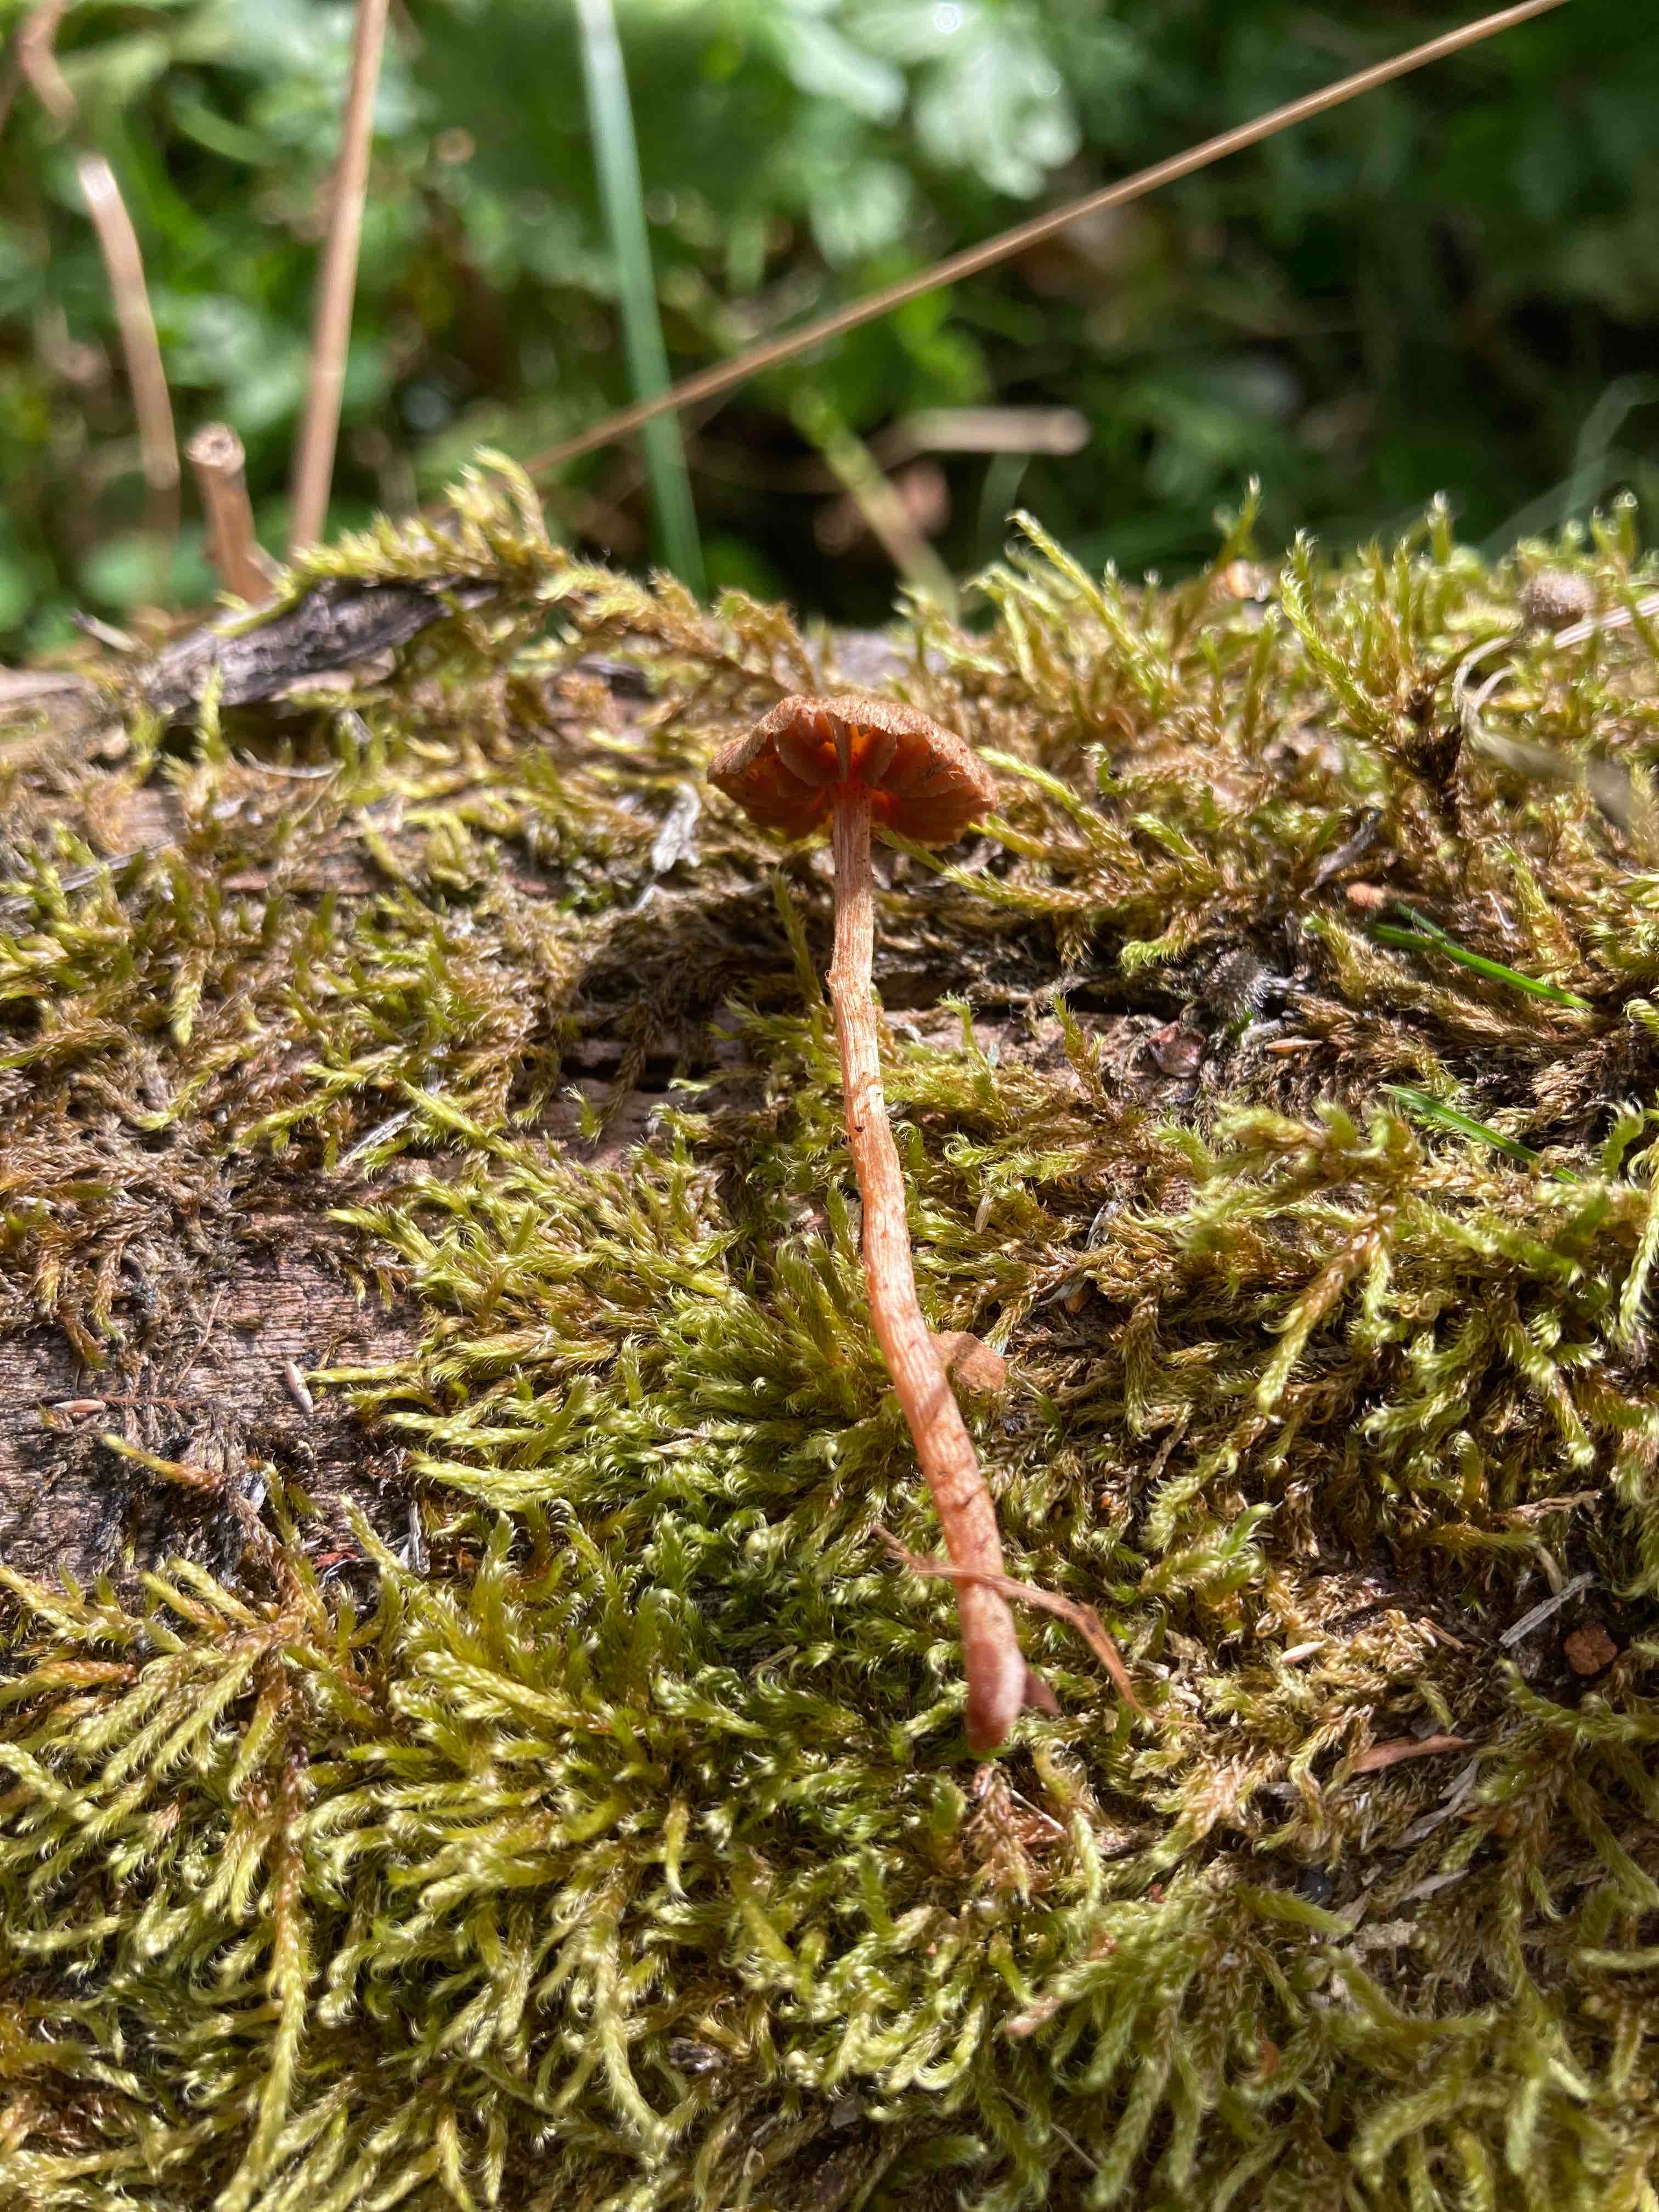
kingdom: Fungi
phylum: Basidiomycota
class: Agaricomycetes
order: Agaricales
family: Cortinariaceae
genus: Cortinarius
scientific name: Cortinarius helvelloides
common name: fjernbladet slørhat
